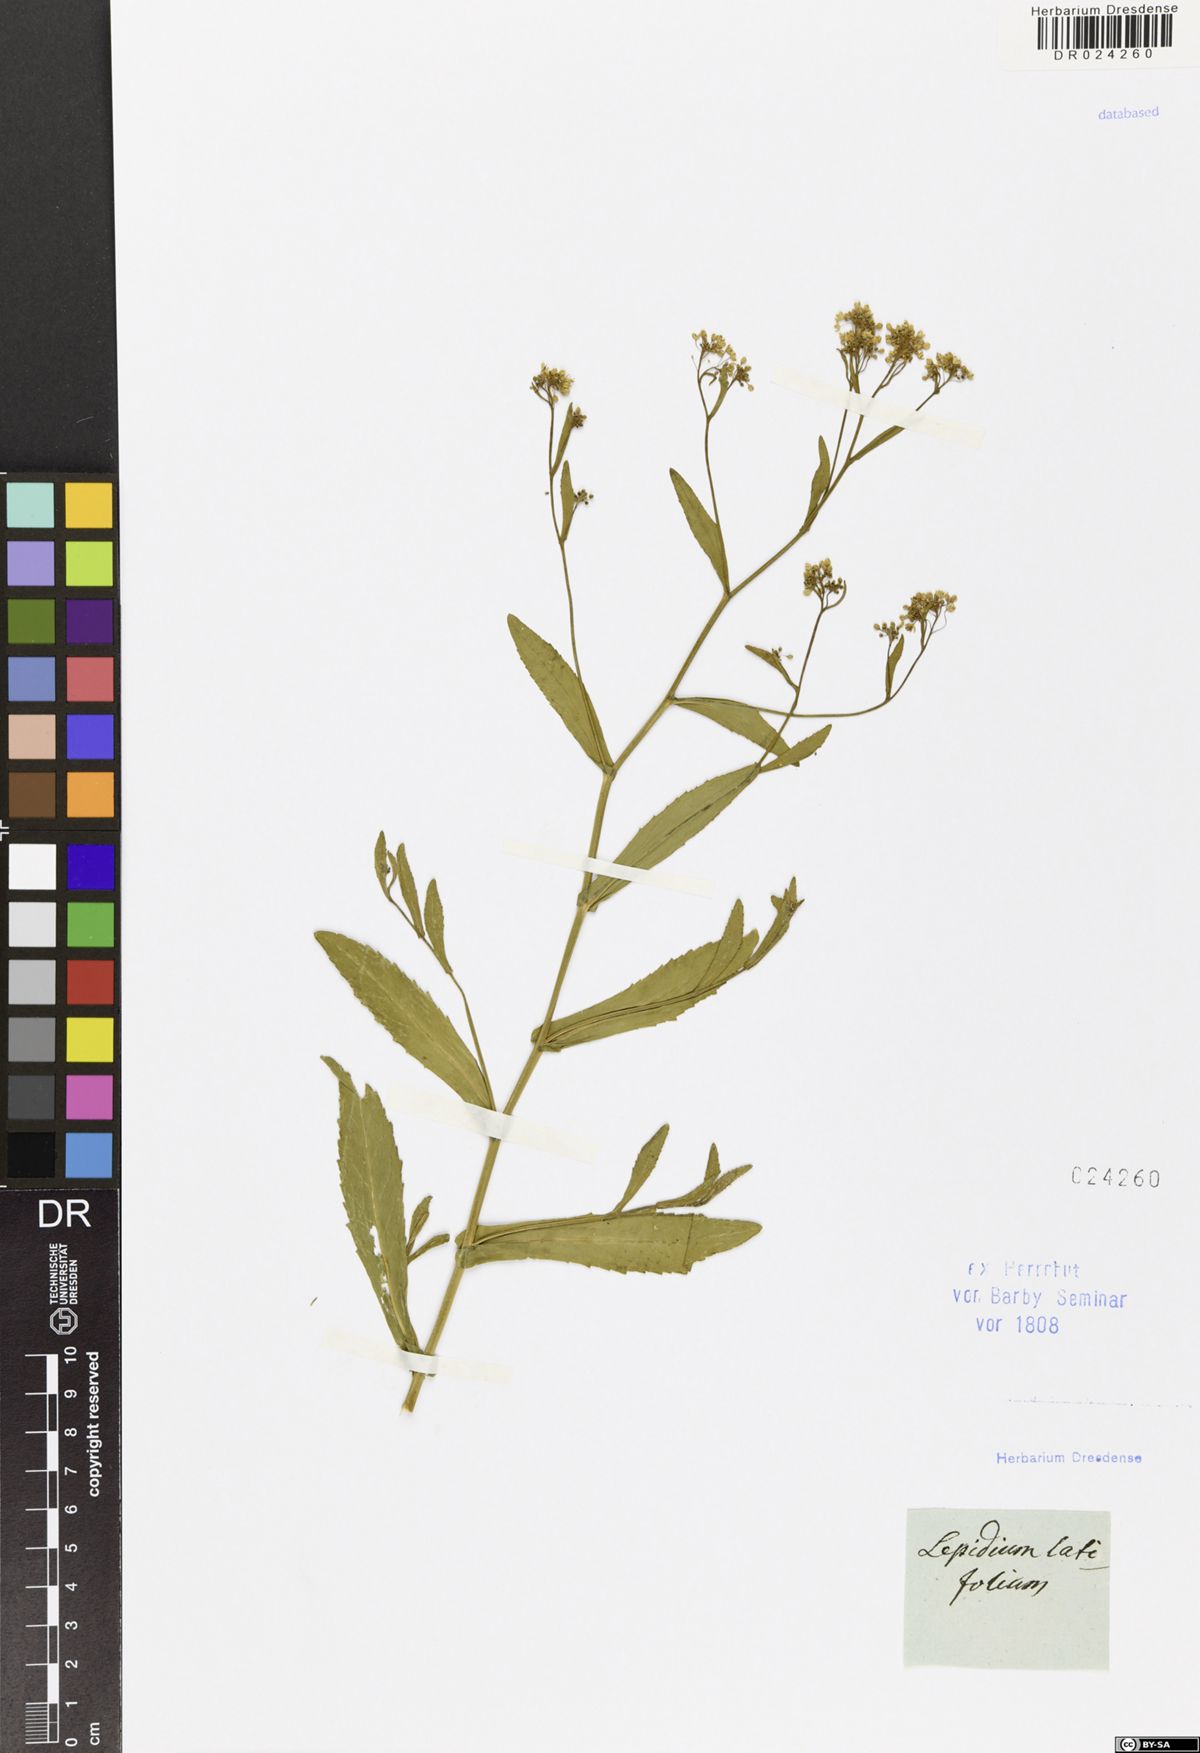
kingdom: Plantae
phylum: Tracheophyta
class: Magnoliopsida
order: Brassicales
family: Brassicaceae
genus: Lepidium
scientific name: Lepidium latifolium
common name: Dittander
